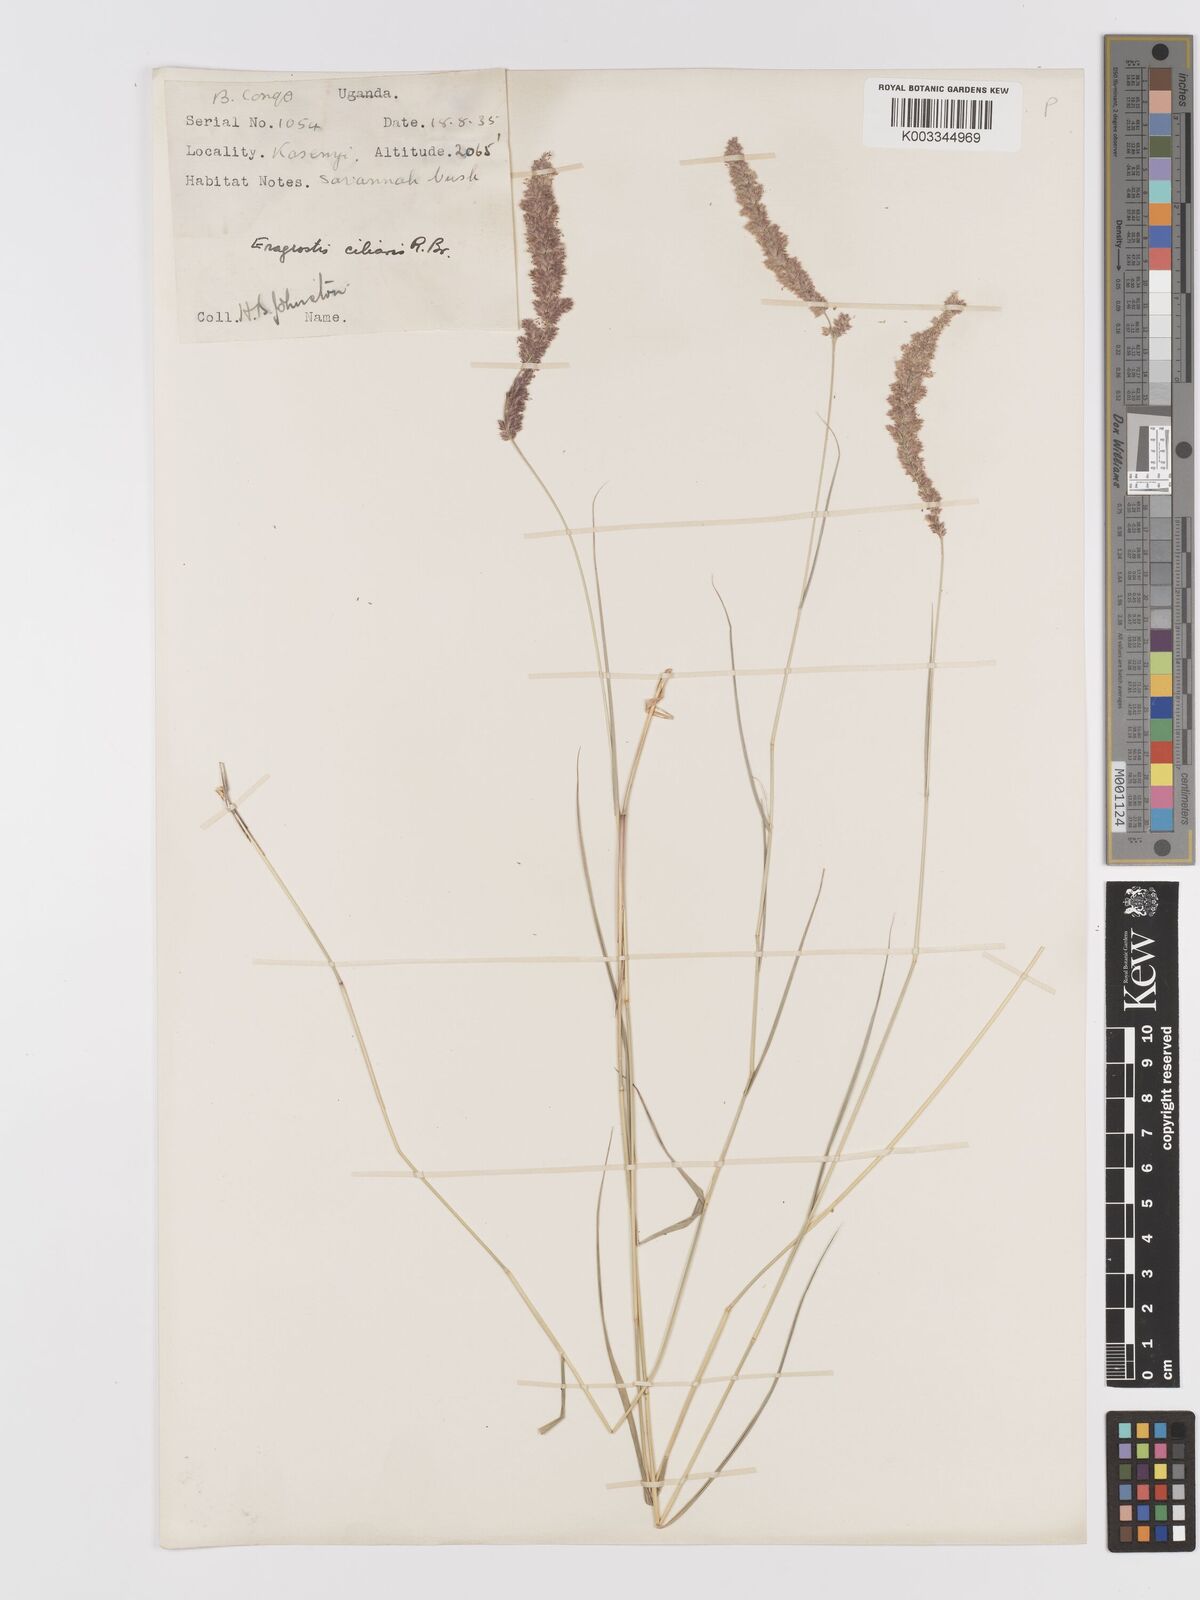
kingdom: Plantae
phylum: Tracheophyta
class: Liliopsida
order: Poales
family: Poaceae
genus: Eragrostis
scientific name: Eragrostis ciliaris
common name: Gophertail lovegrass
